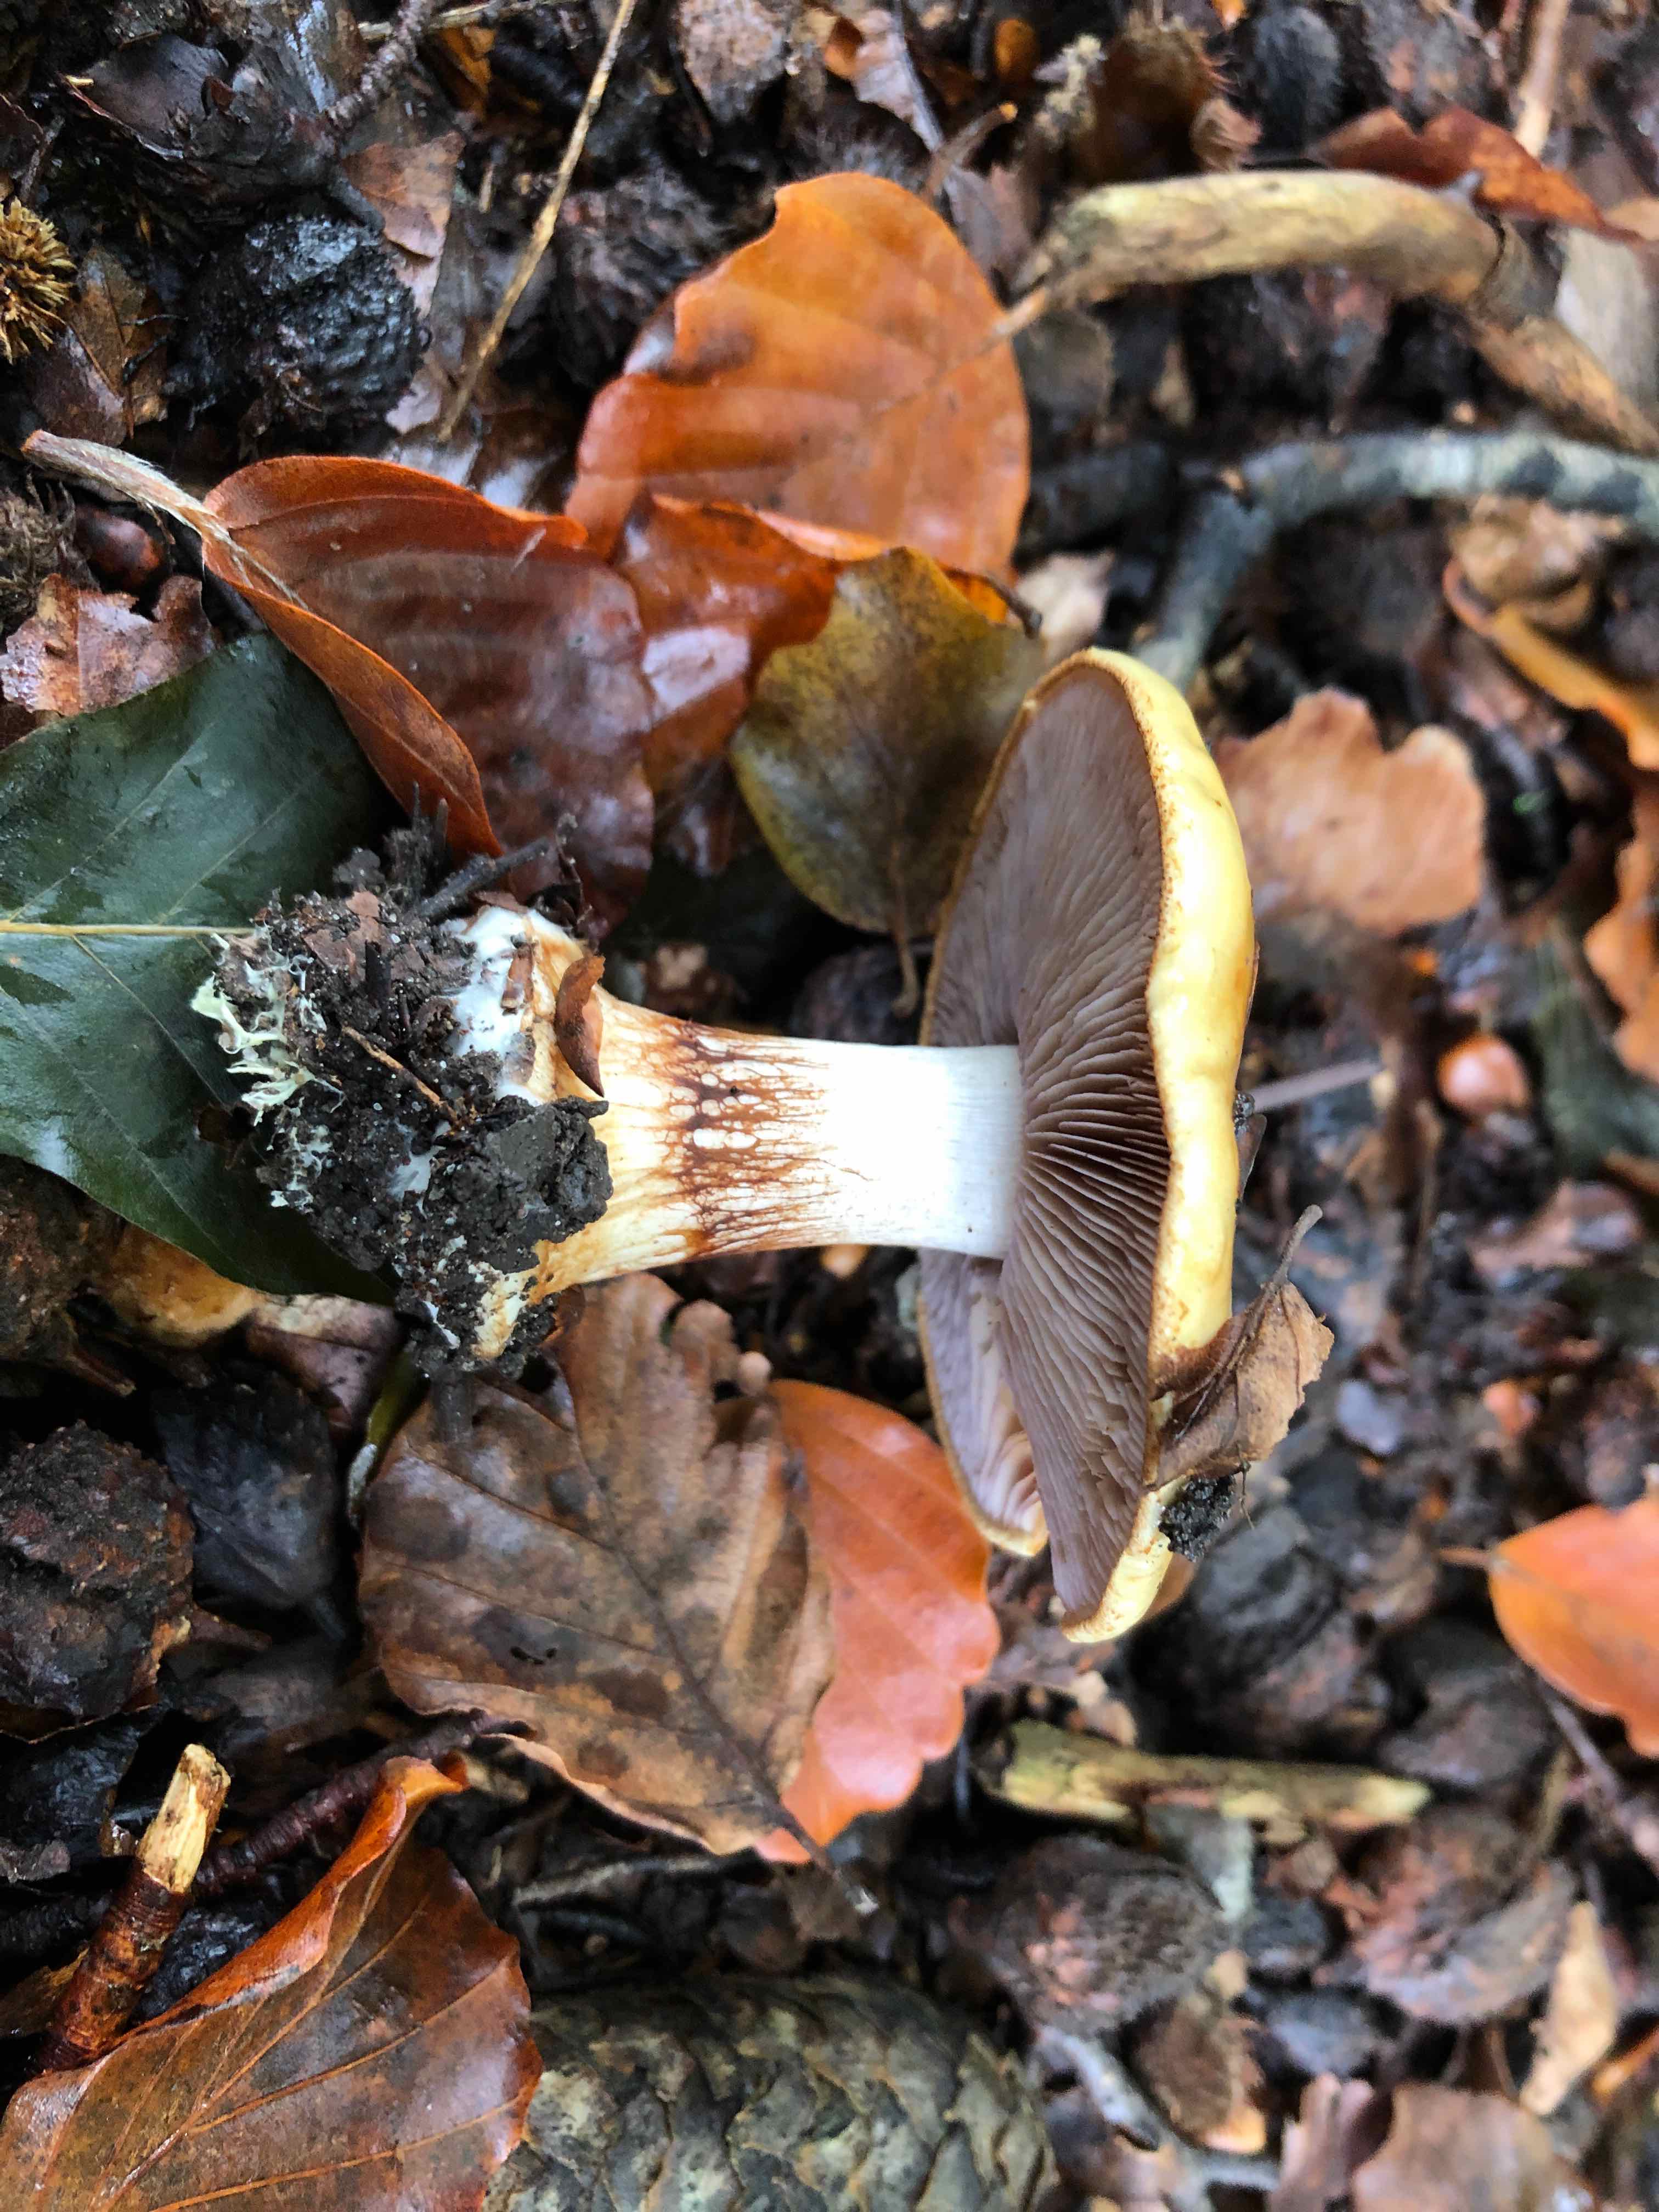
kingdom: Fungi
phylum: Basidiomycota
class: Agaricomycetes
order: Agaricales
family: Cortinariaceae
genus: Calonarius
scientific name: Calonarius callochrous
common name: lillabladet slørhat
